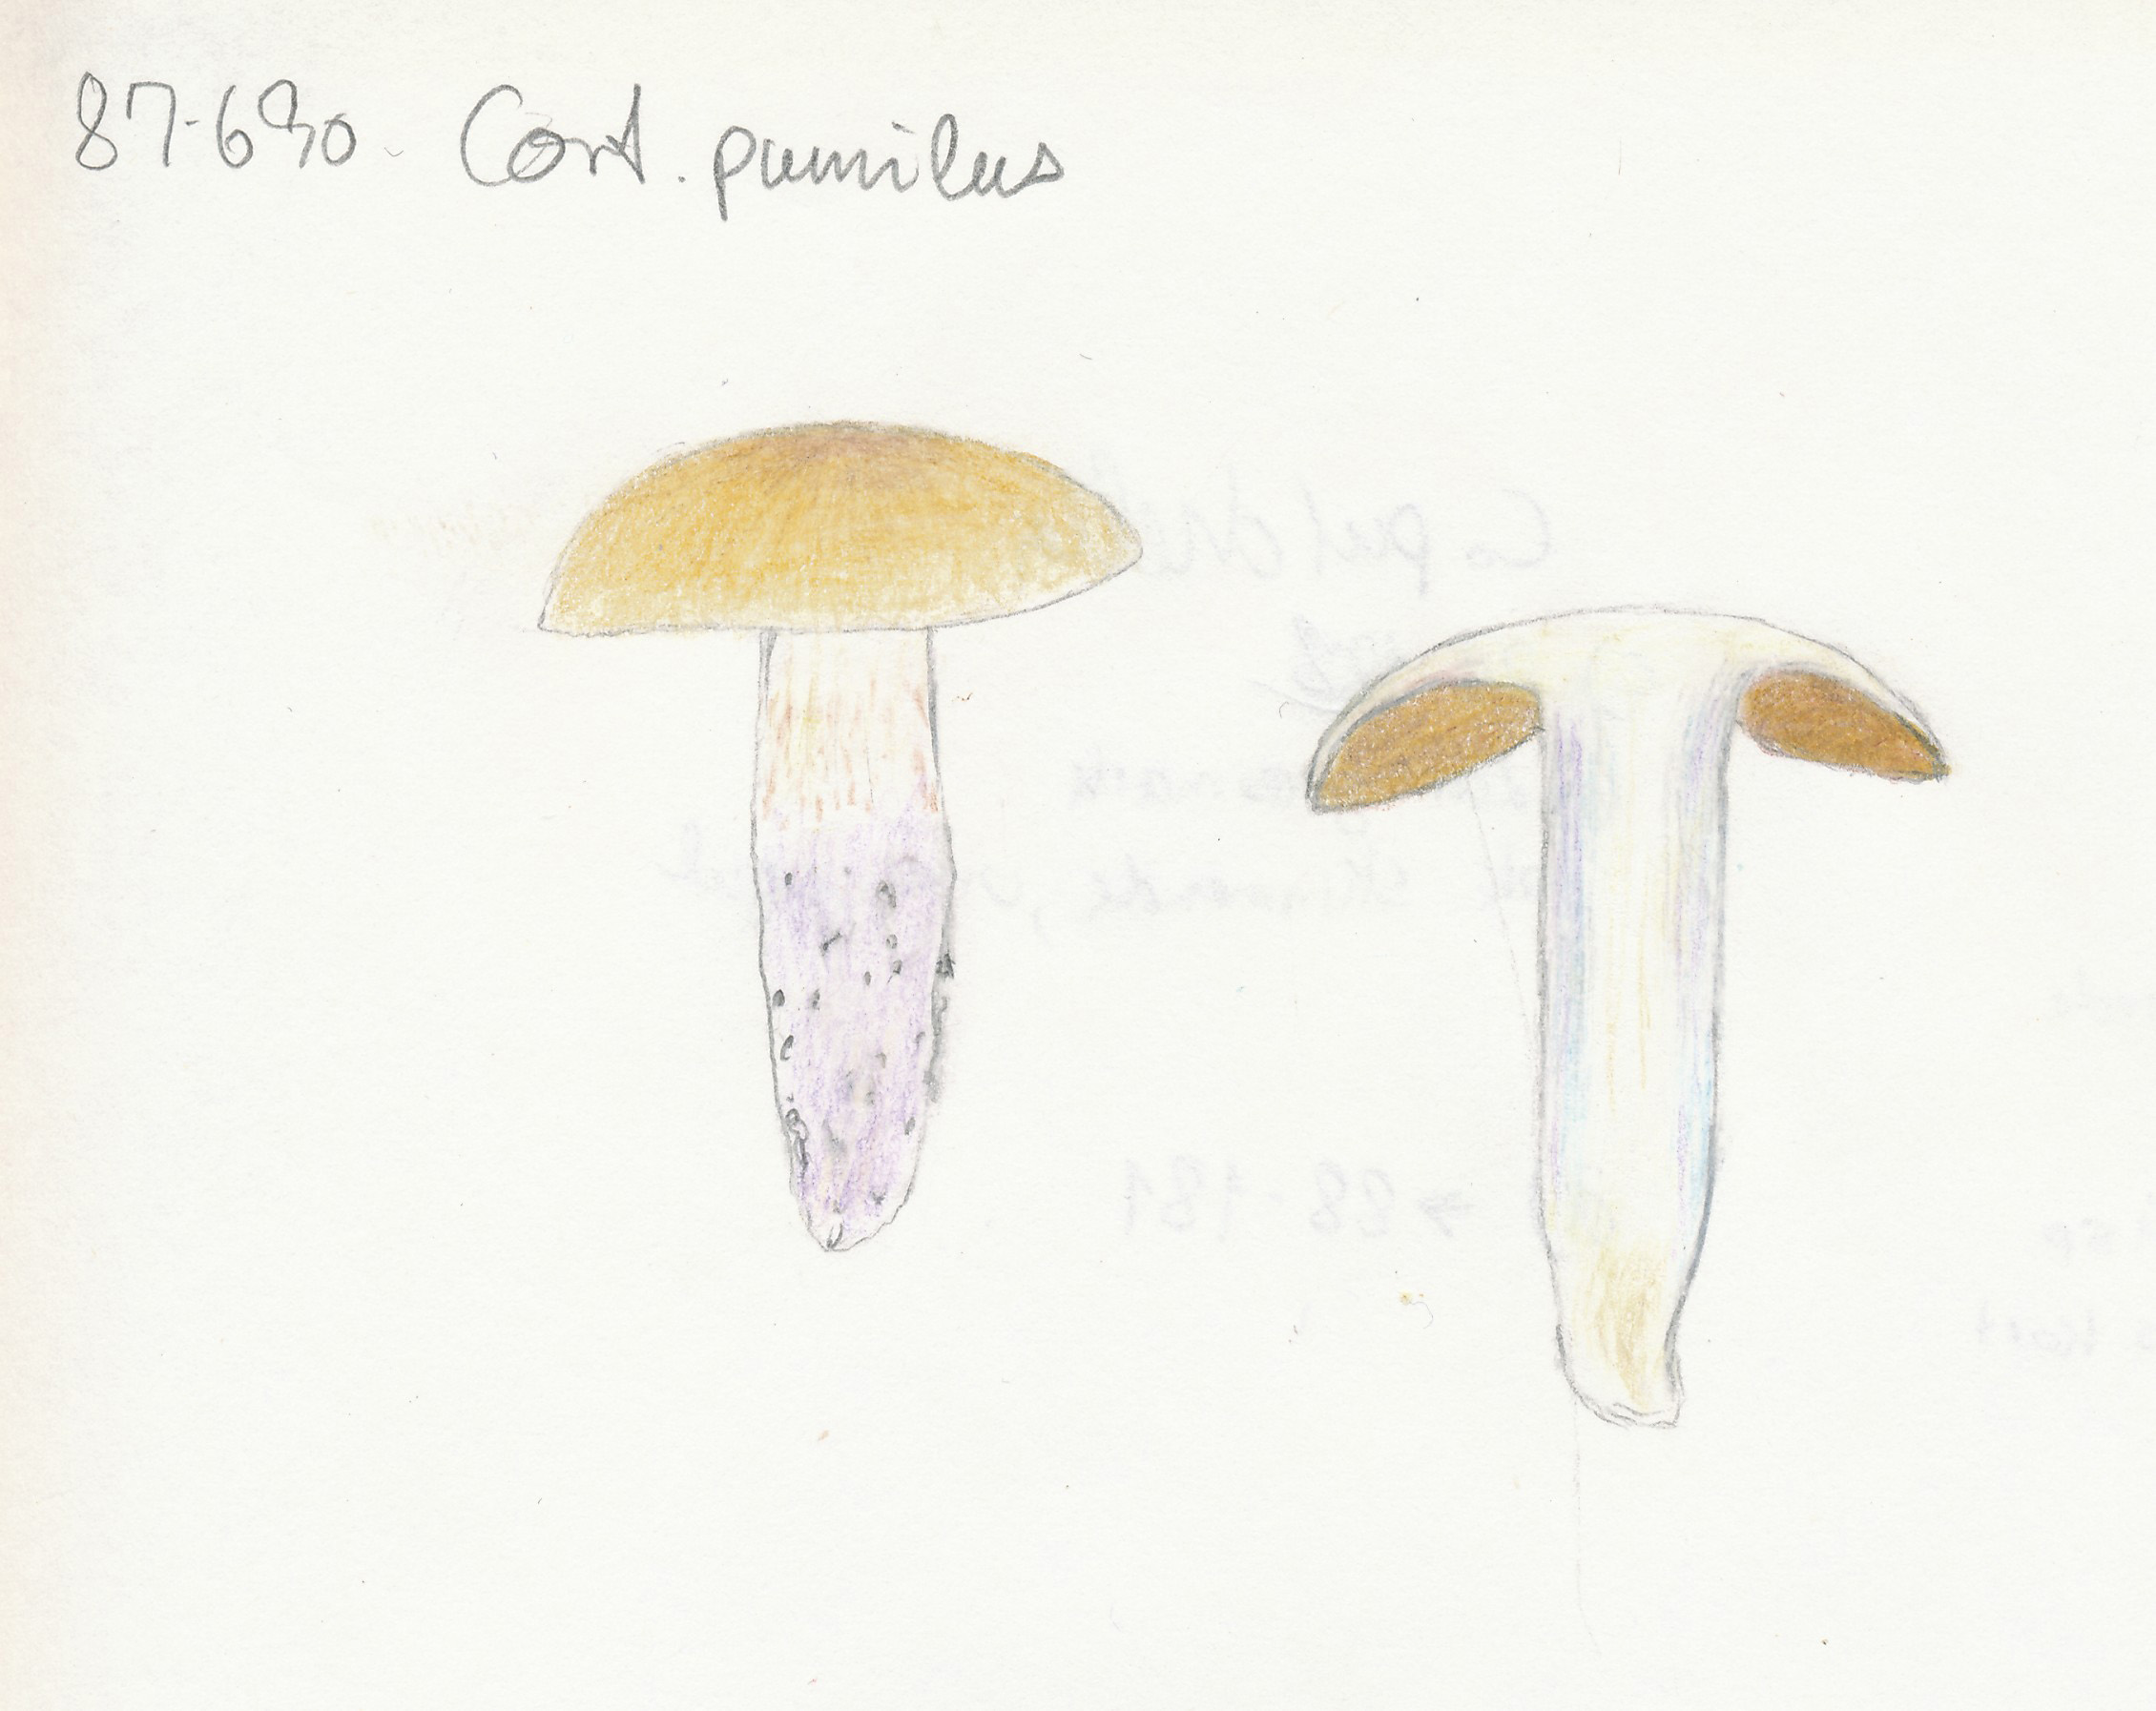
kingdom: Fungi
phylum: Basidiomycota
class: Agaricomycetes
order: Agaricales
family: Cortinariaceae
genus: Cortinarius
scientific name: Cortinarius livido-ochraceus
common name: halvhøj slørhat
